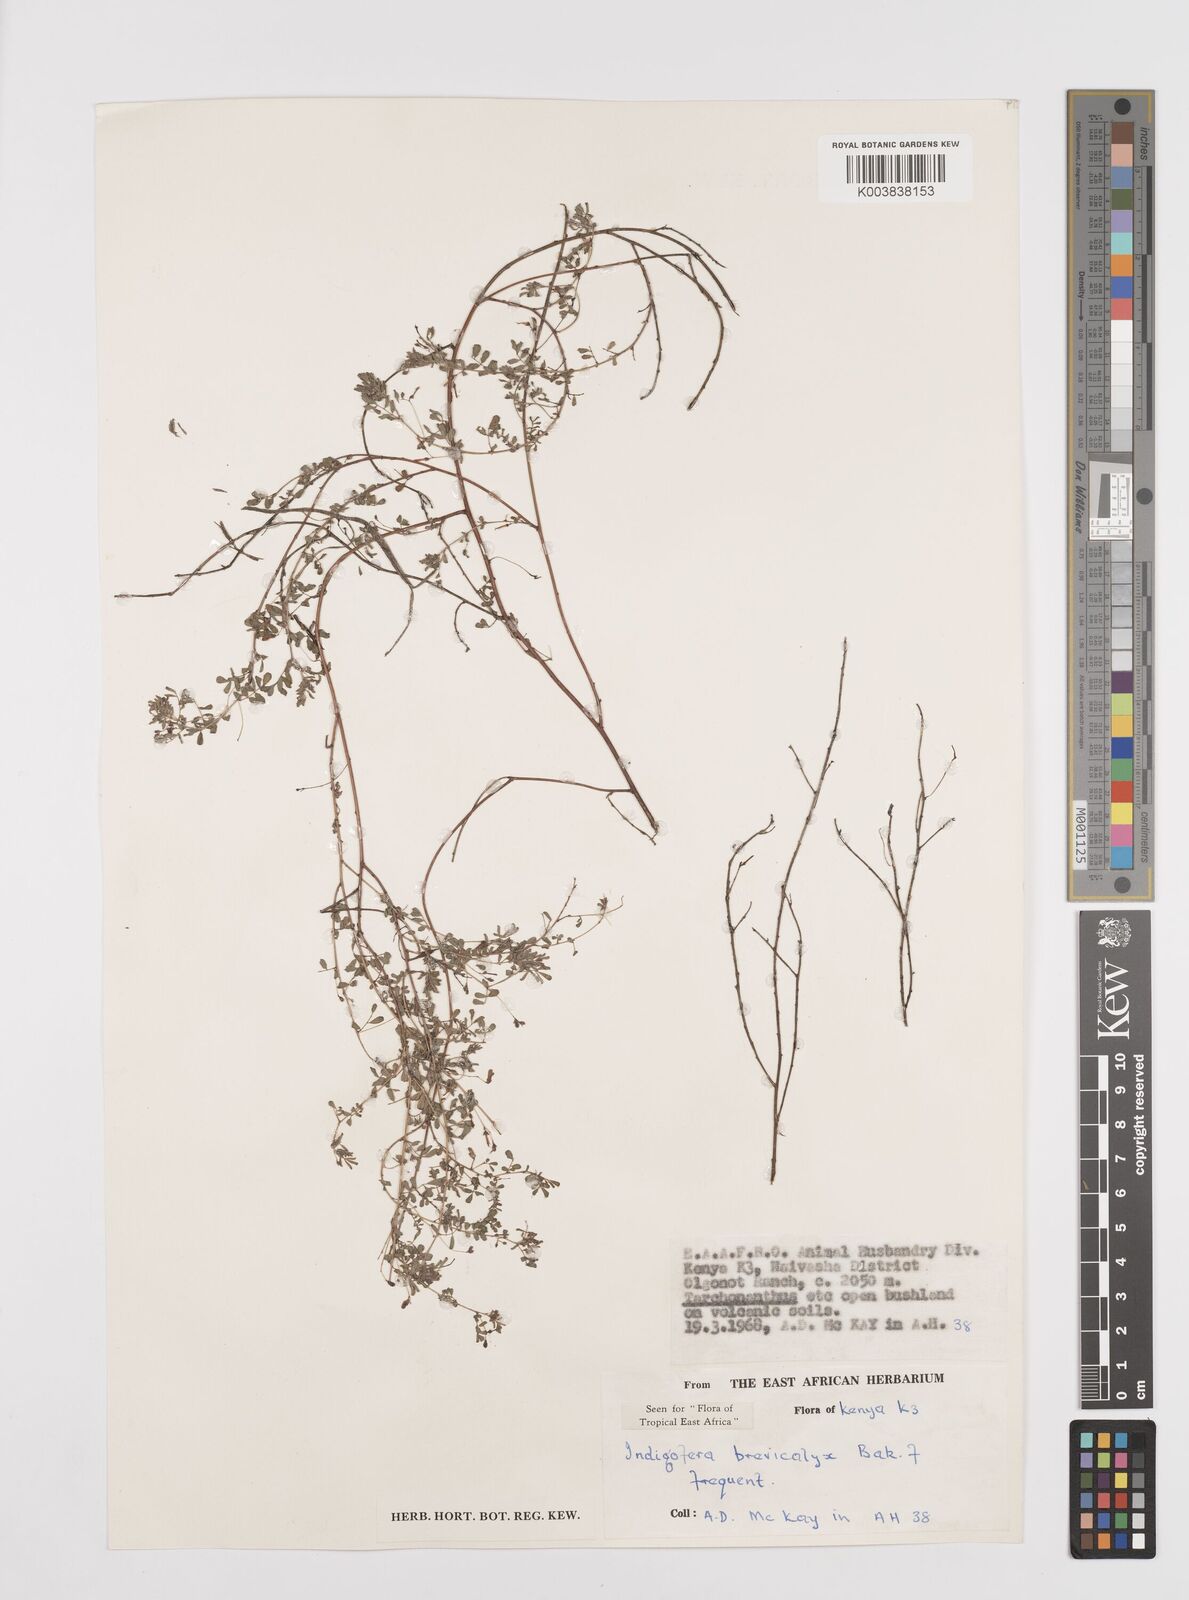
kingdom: Plantae
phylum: Tracheophyta
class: Magnoliopsida
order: Fabales
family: Fabaceae
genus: Indigofera
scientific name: Indigofera brevicalyx
